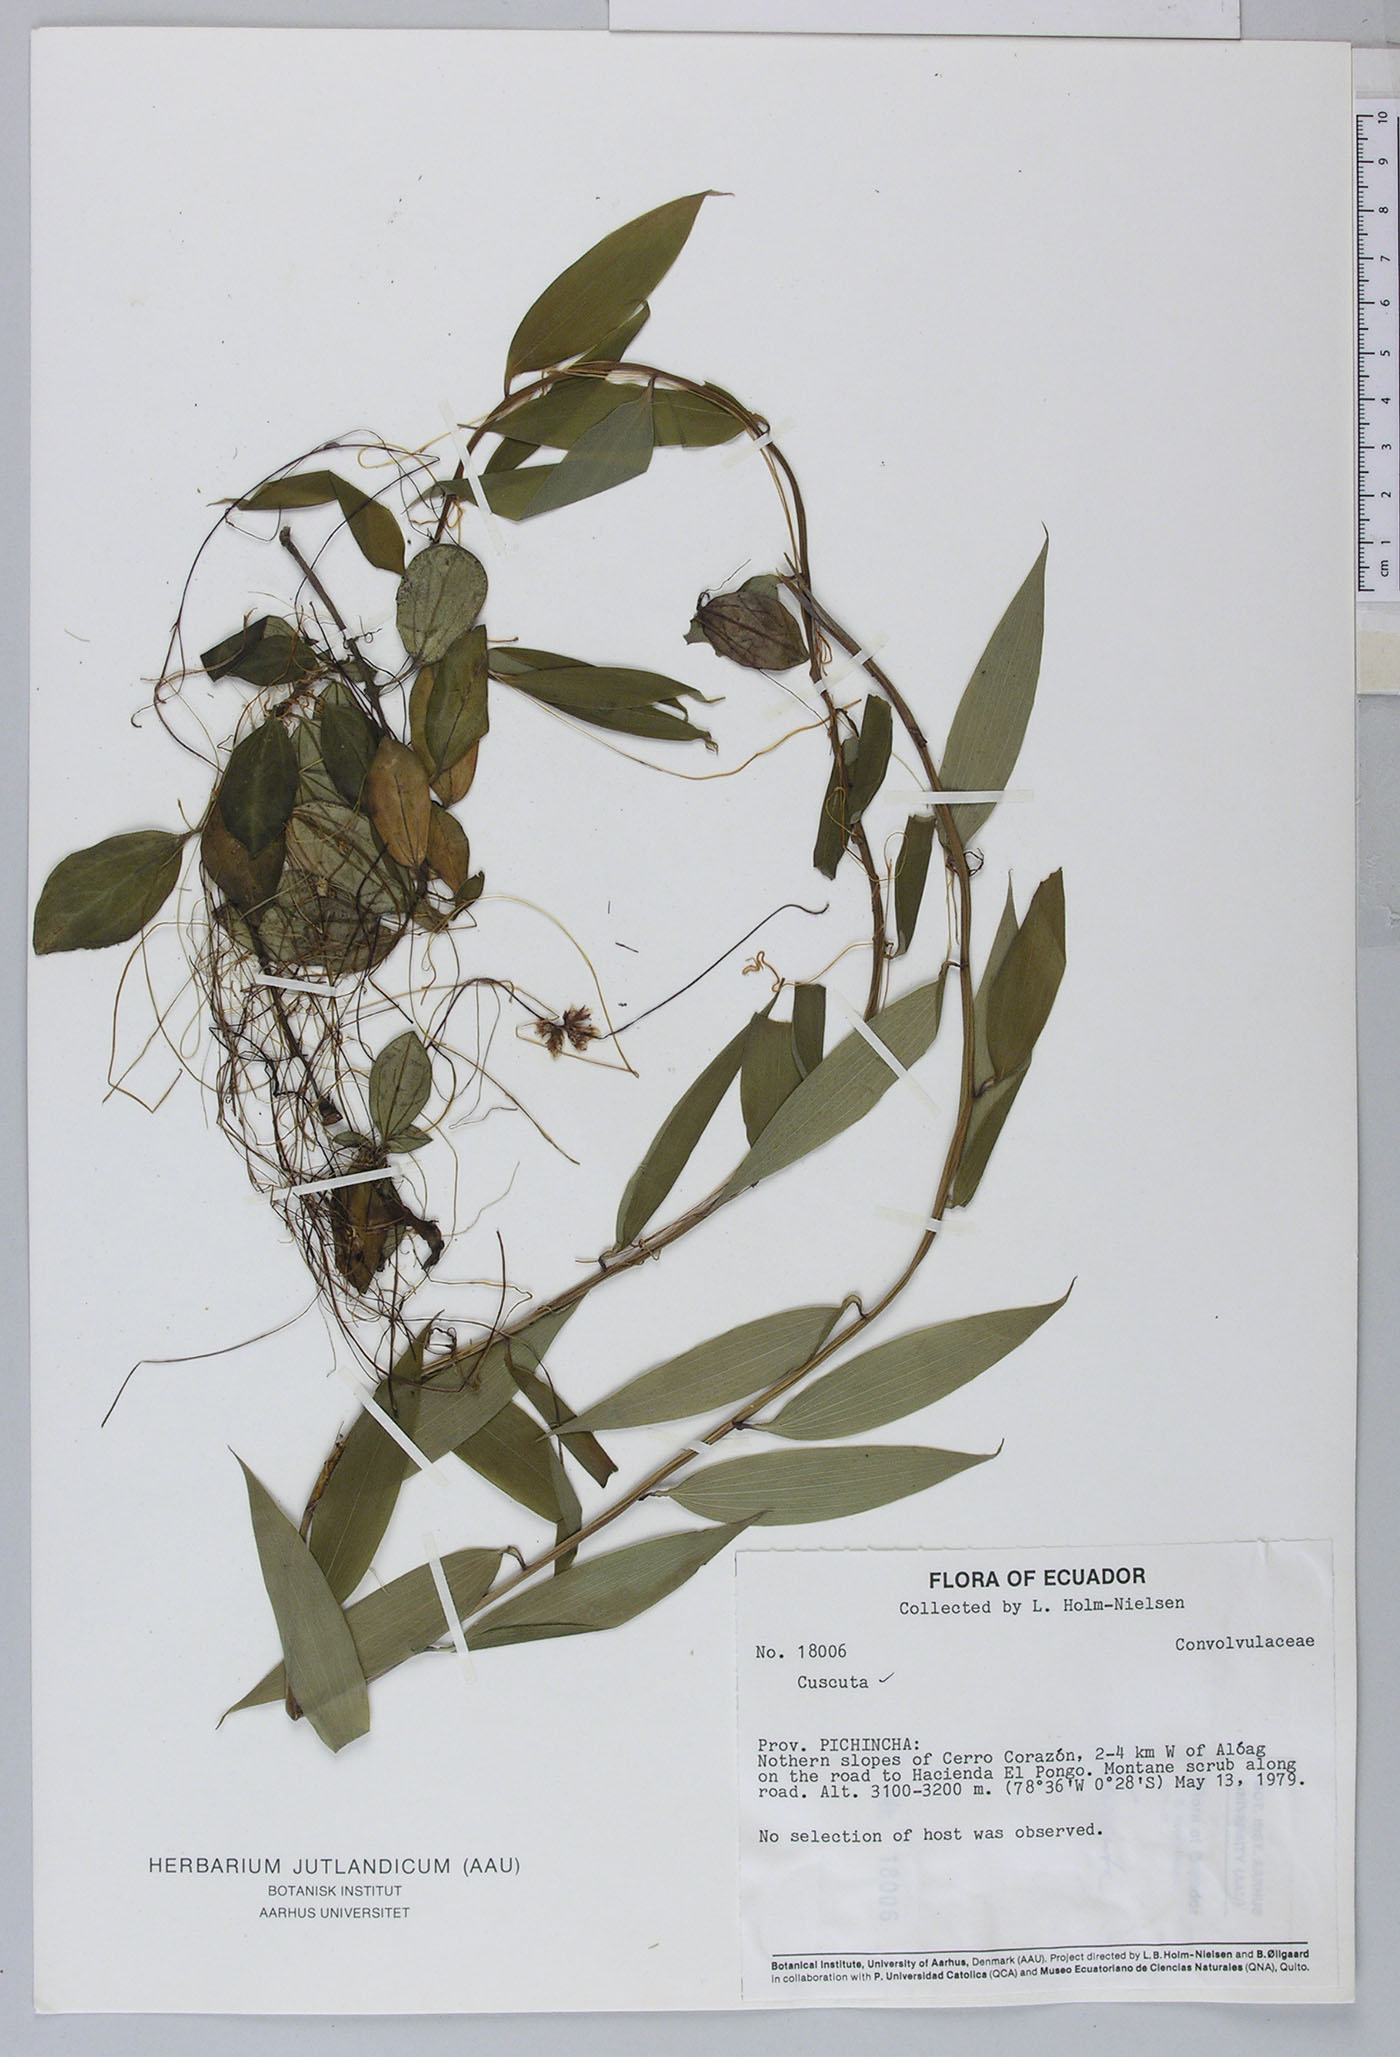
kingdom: Plantae
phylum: Tracheophyta
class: Magnoliopsida
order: Solanales
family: Convolvulaceae
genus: Cuscuta
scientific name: Cuscuta foetida
